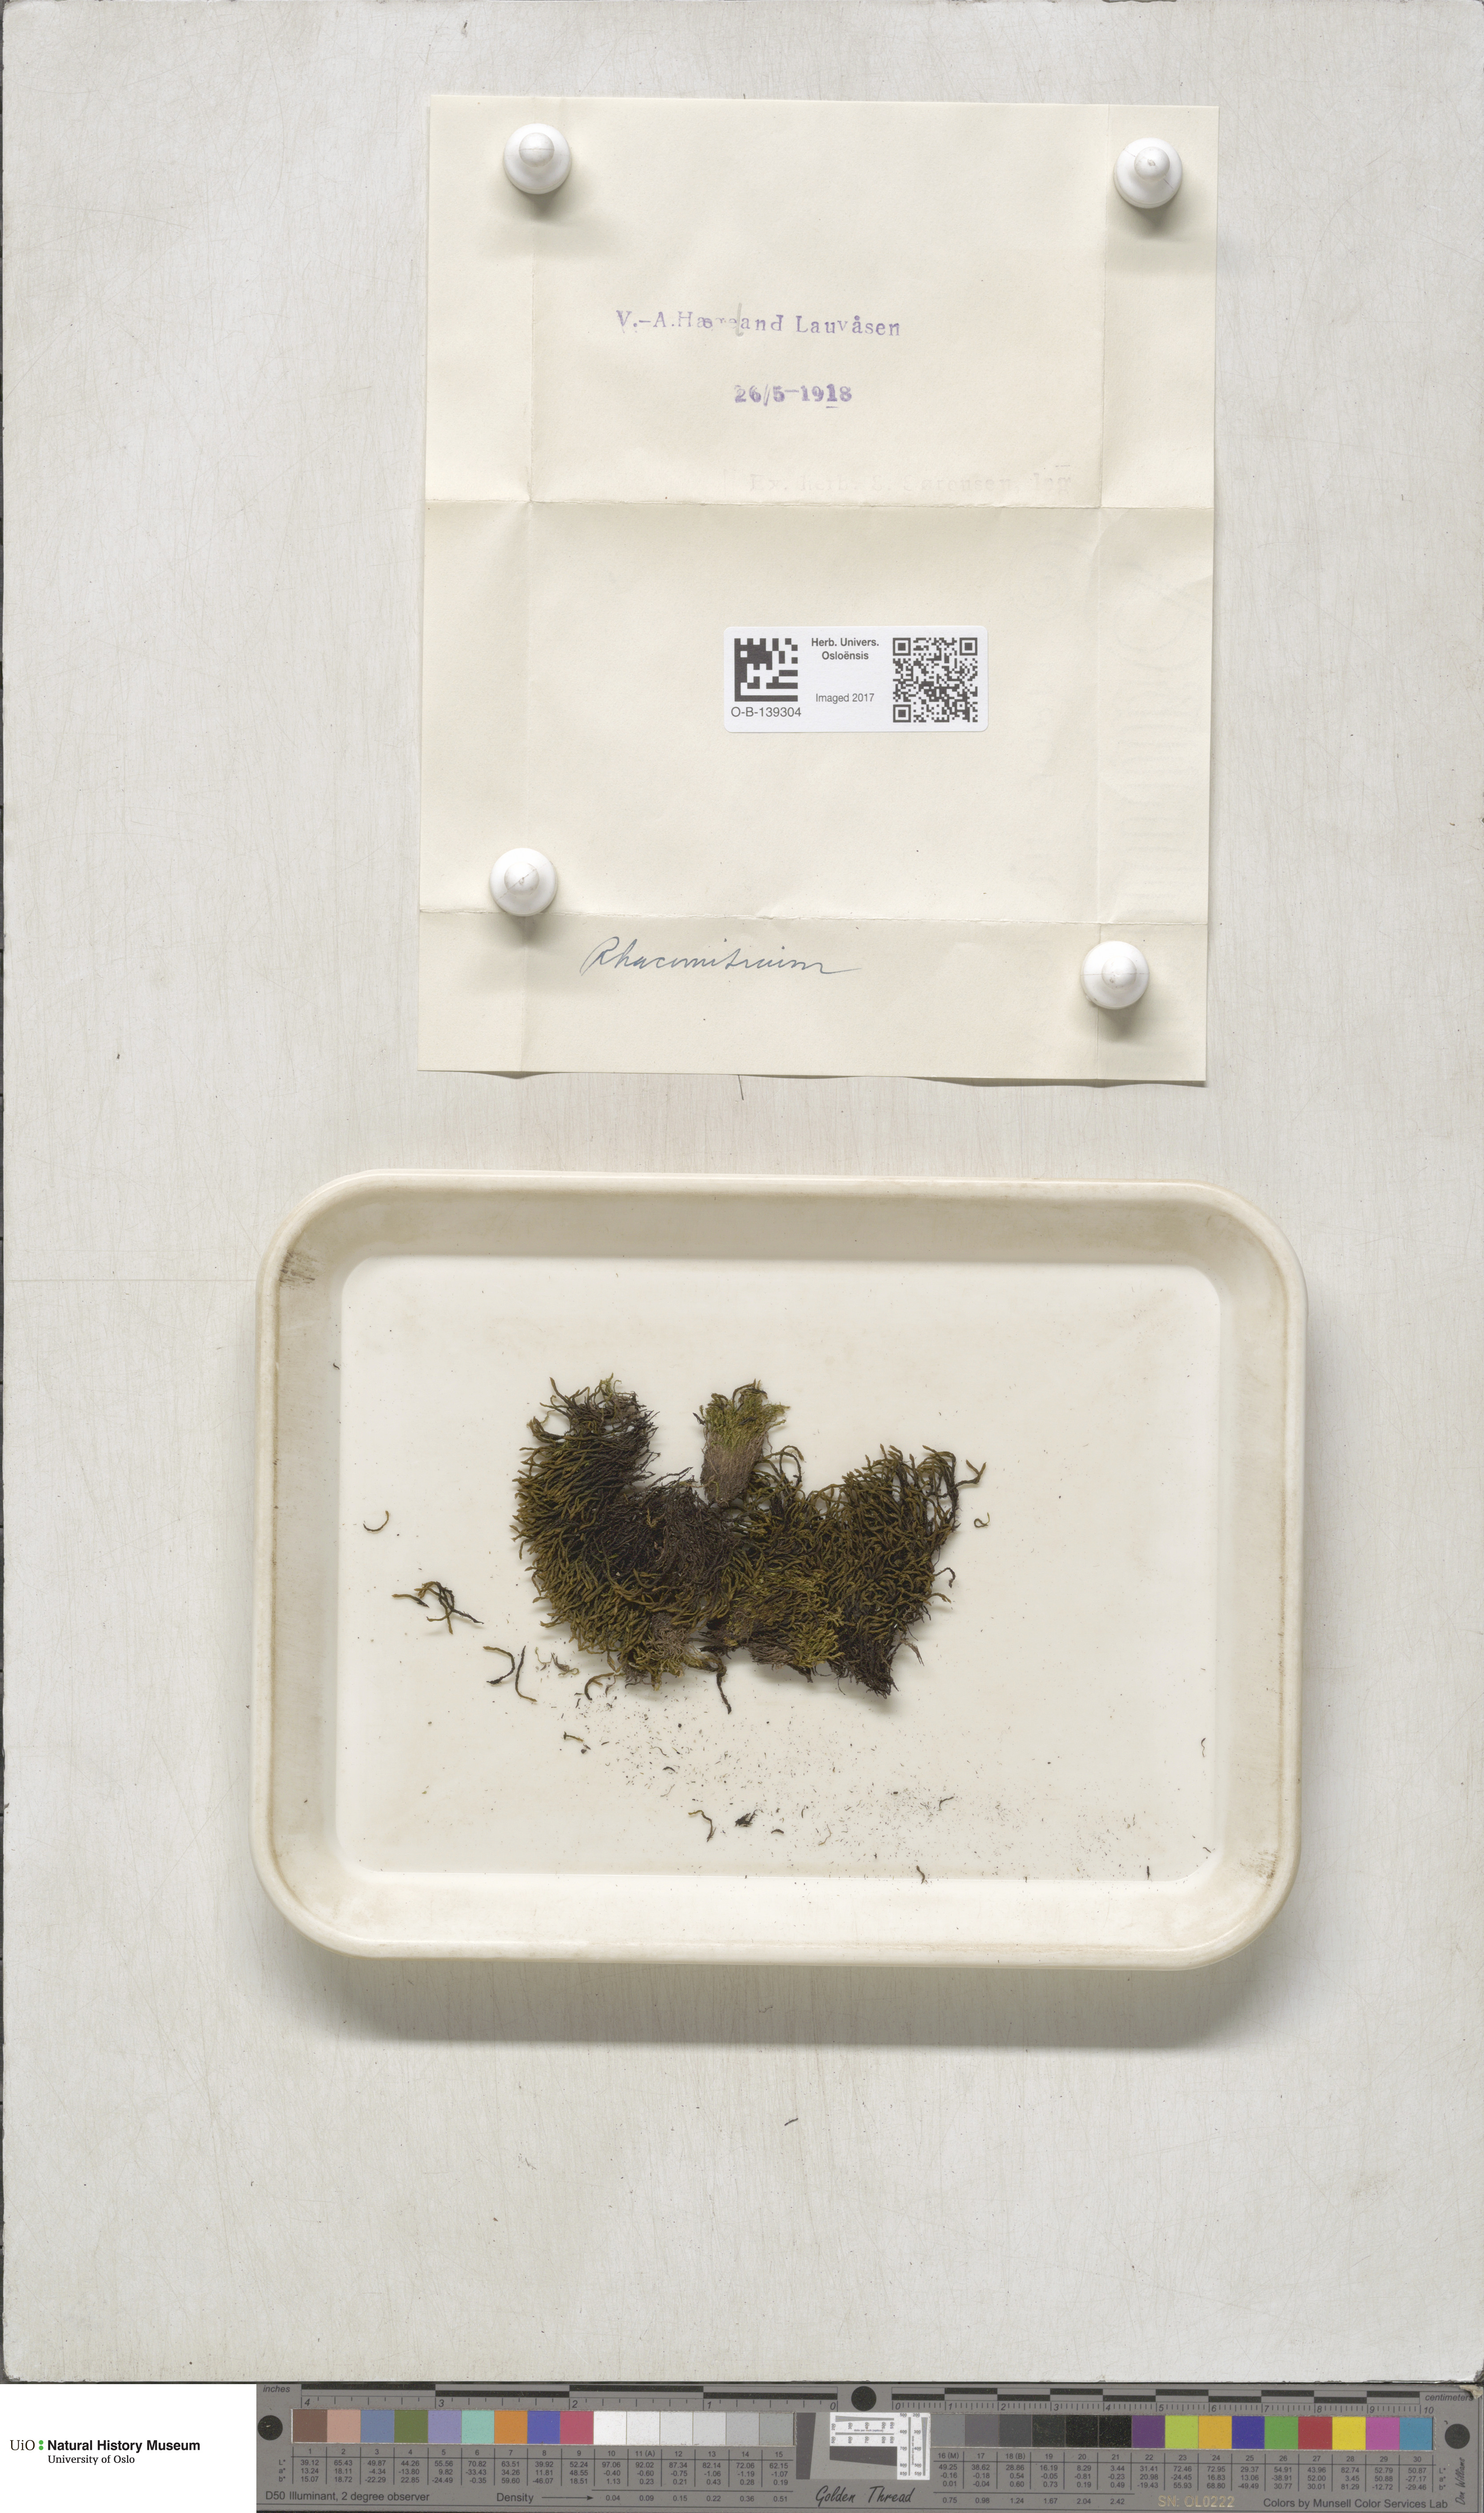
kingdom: Plantae
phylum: Bryophyta
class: Bryopsida
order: Grimmiales
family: Grimmiaceae
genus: Racomitrium
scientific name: Racomitrium
